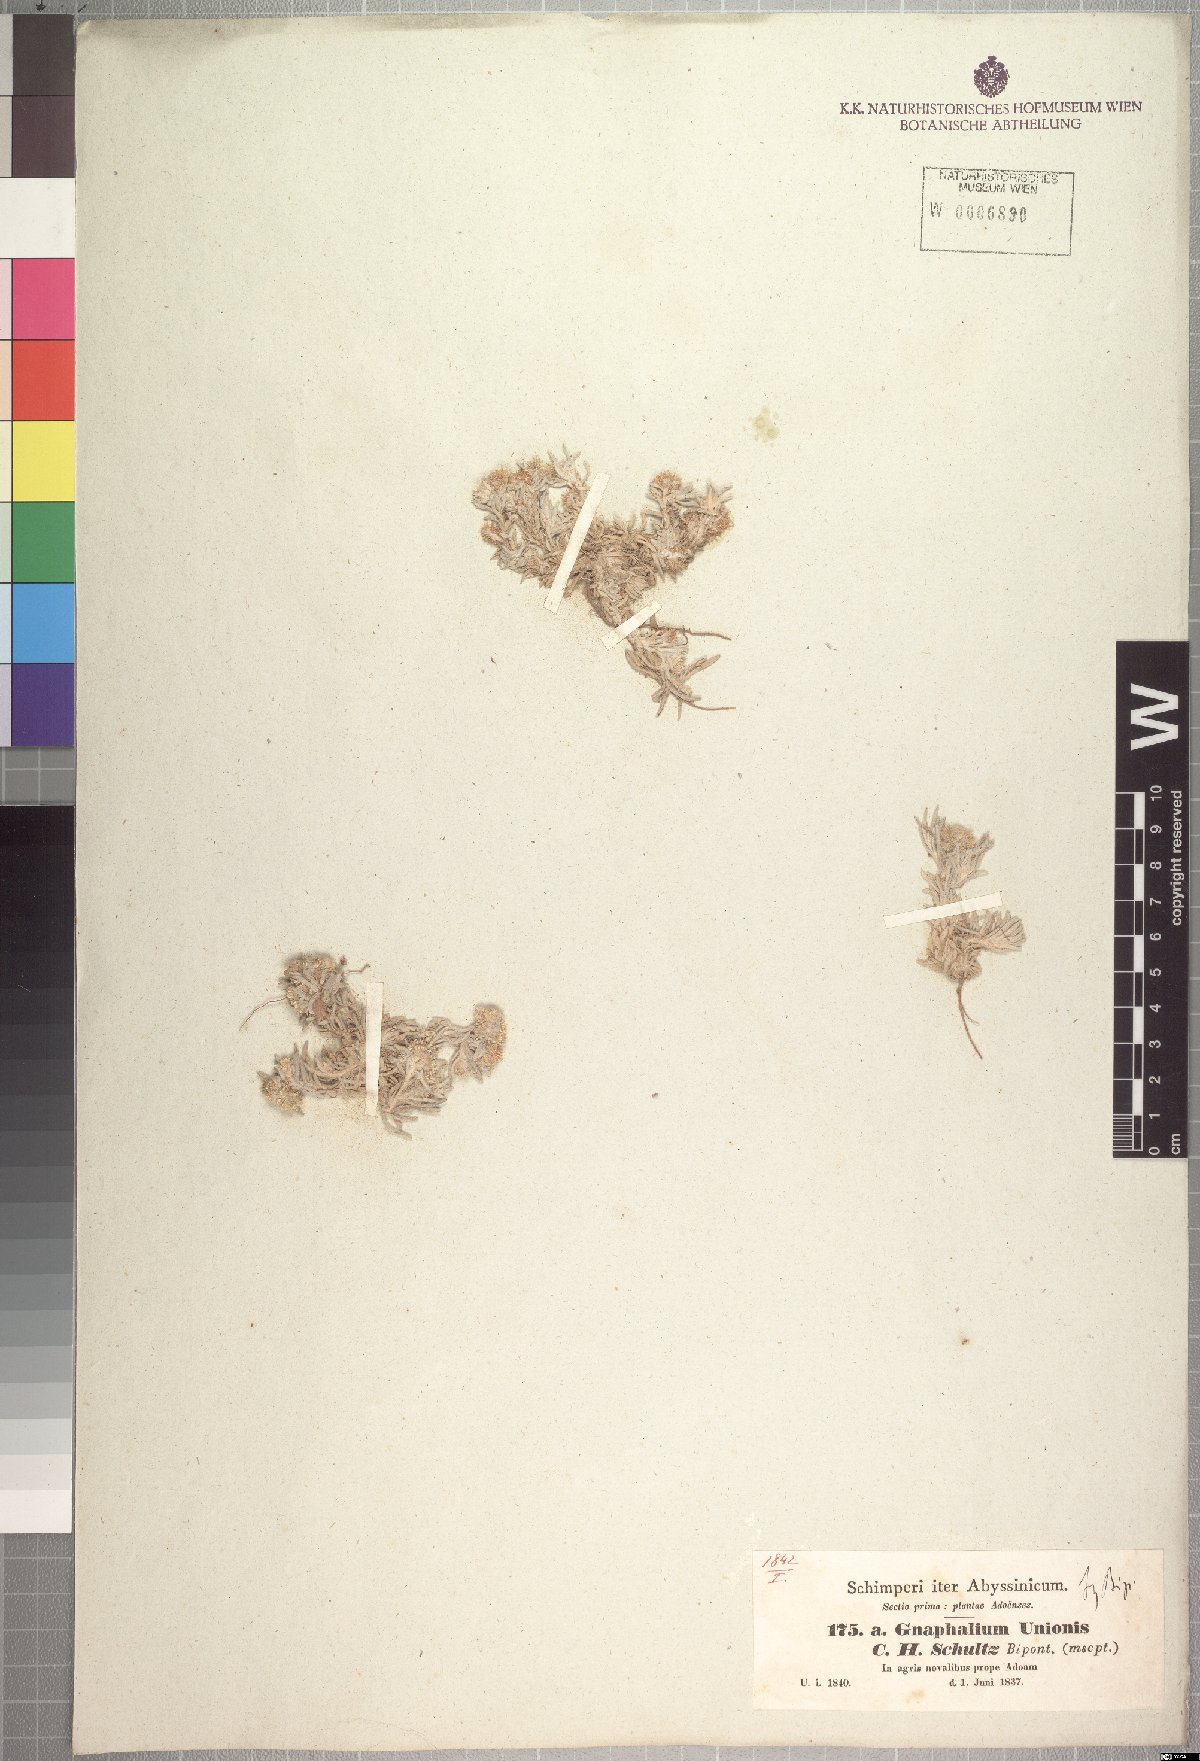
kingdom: Plantae
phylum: Tracheophyta
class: Magnoliopsida
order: Asterales
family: Asteraceae
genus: Gnaphalium
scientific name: Gnaphalium unionis
